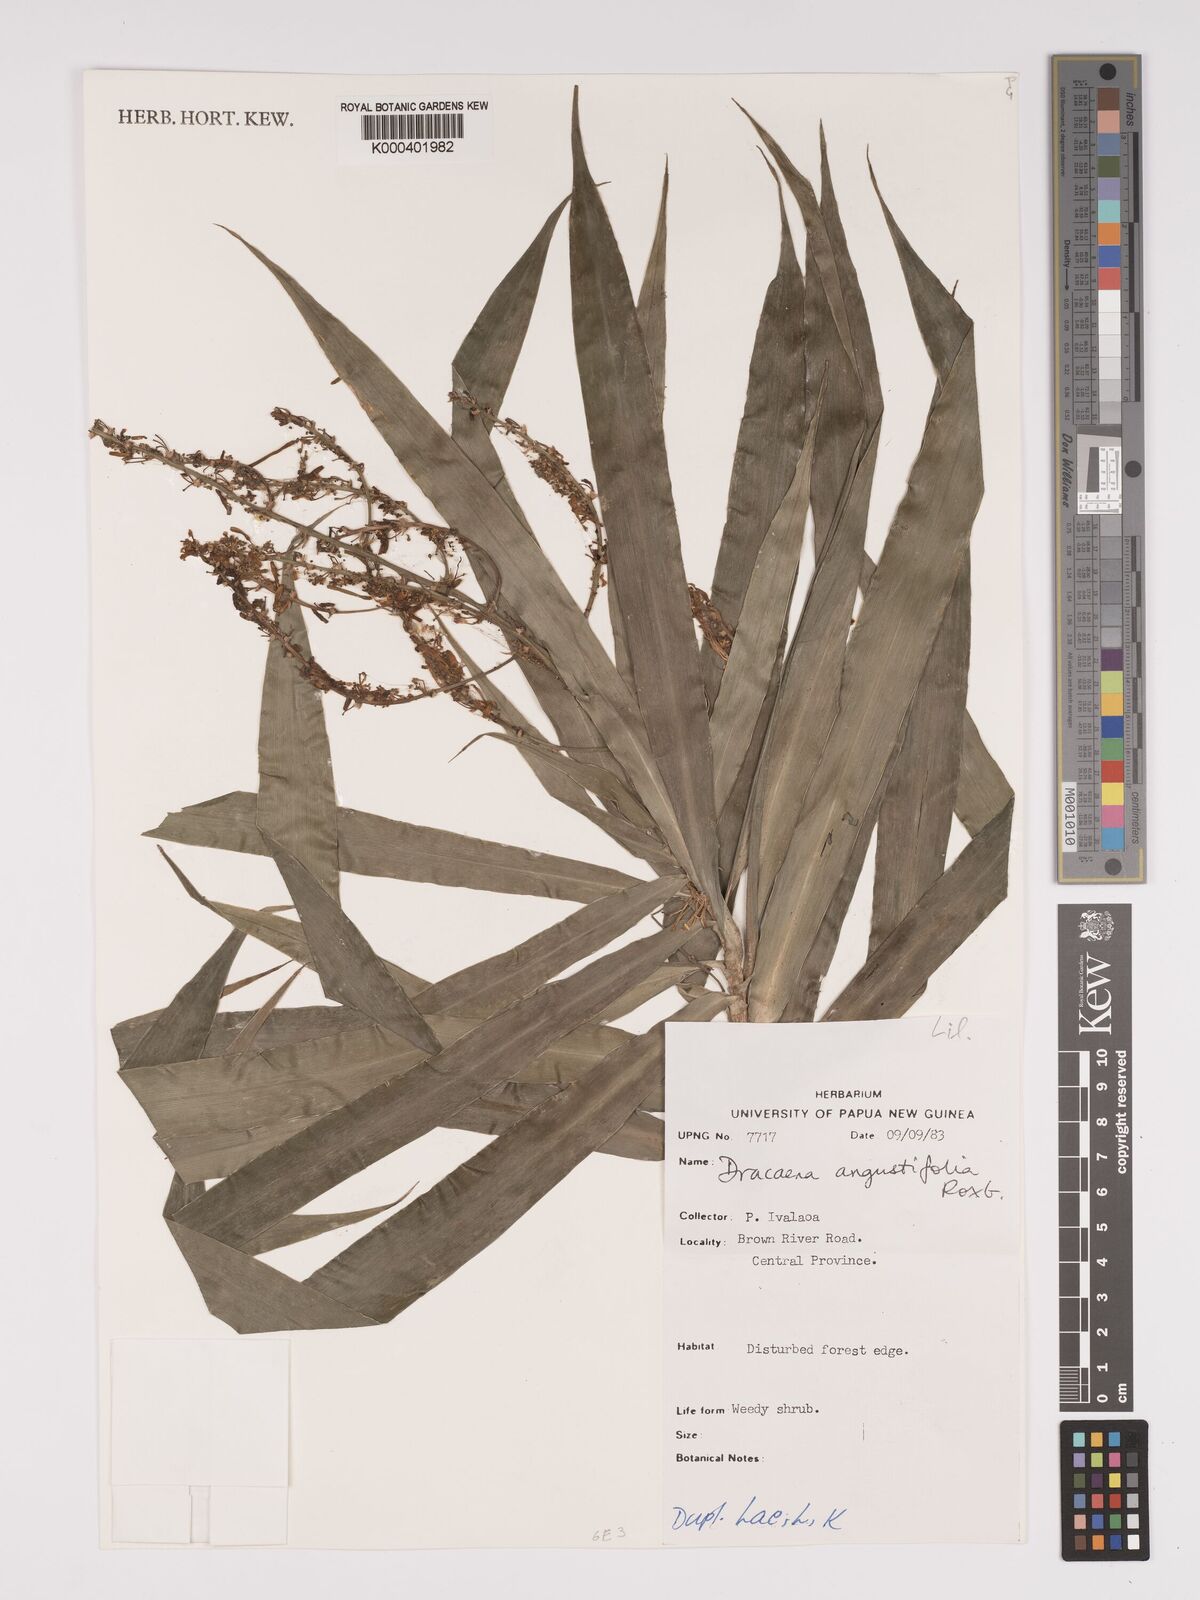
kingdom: Plantae
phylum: Tracheophyta
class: Liliopsida
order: Asparagales
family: Asparagaceae
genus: Dracaena
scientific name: Dracaena angustifolia
